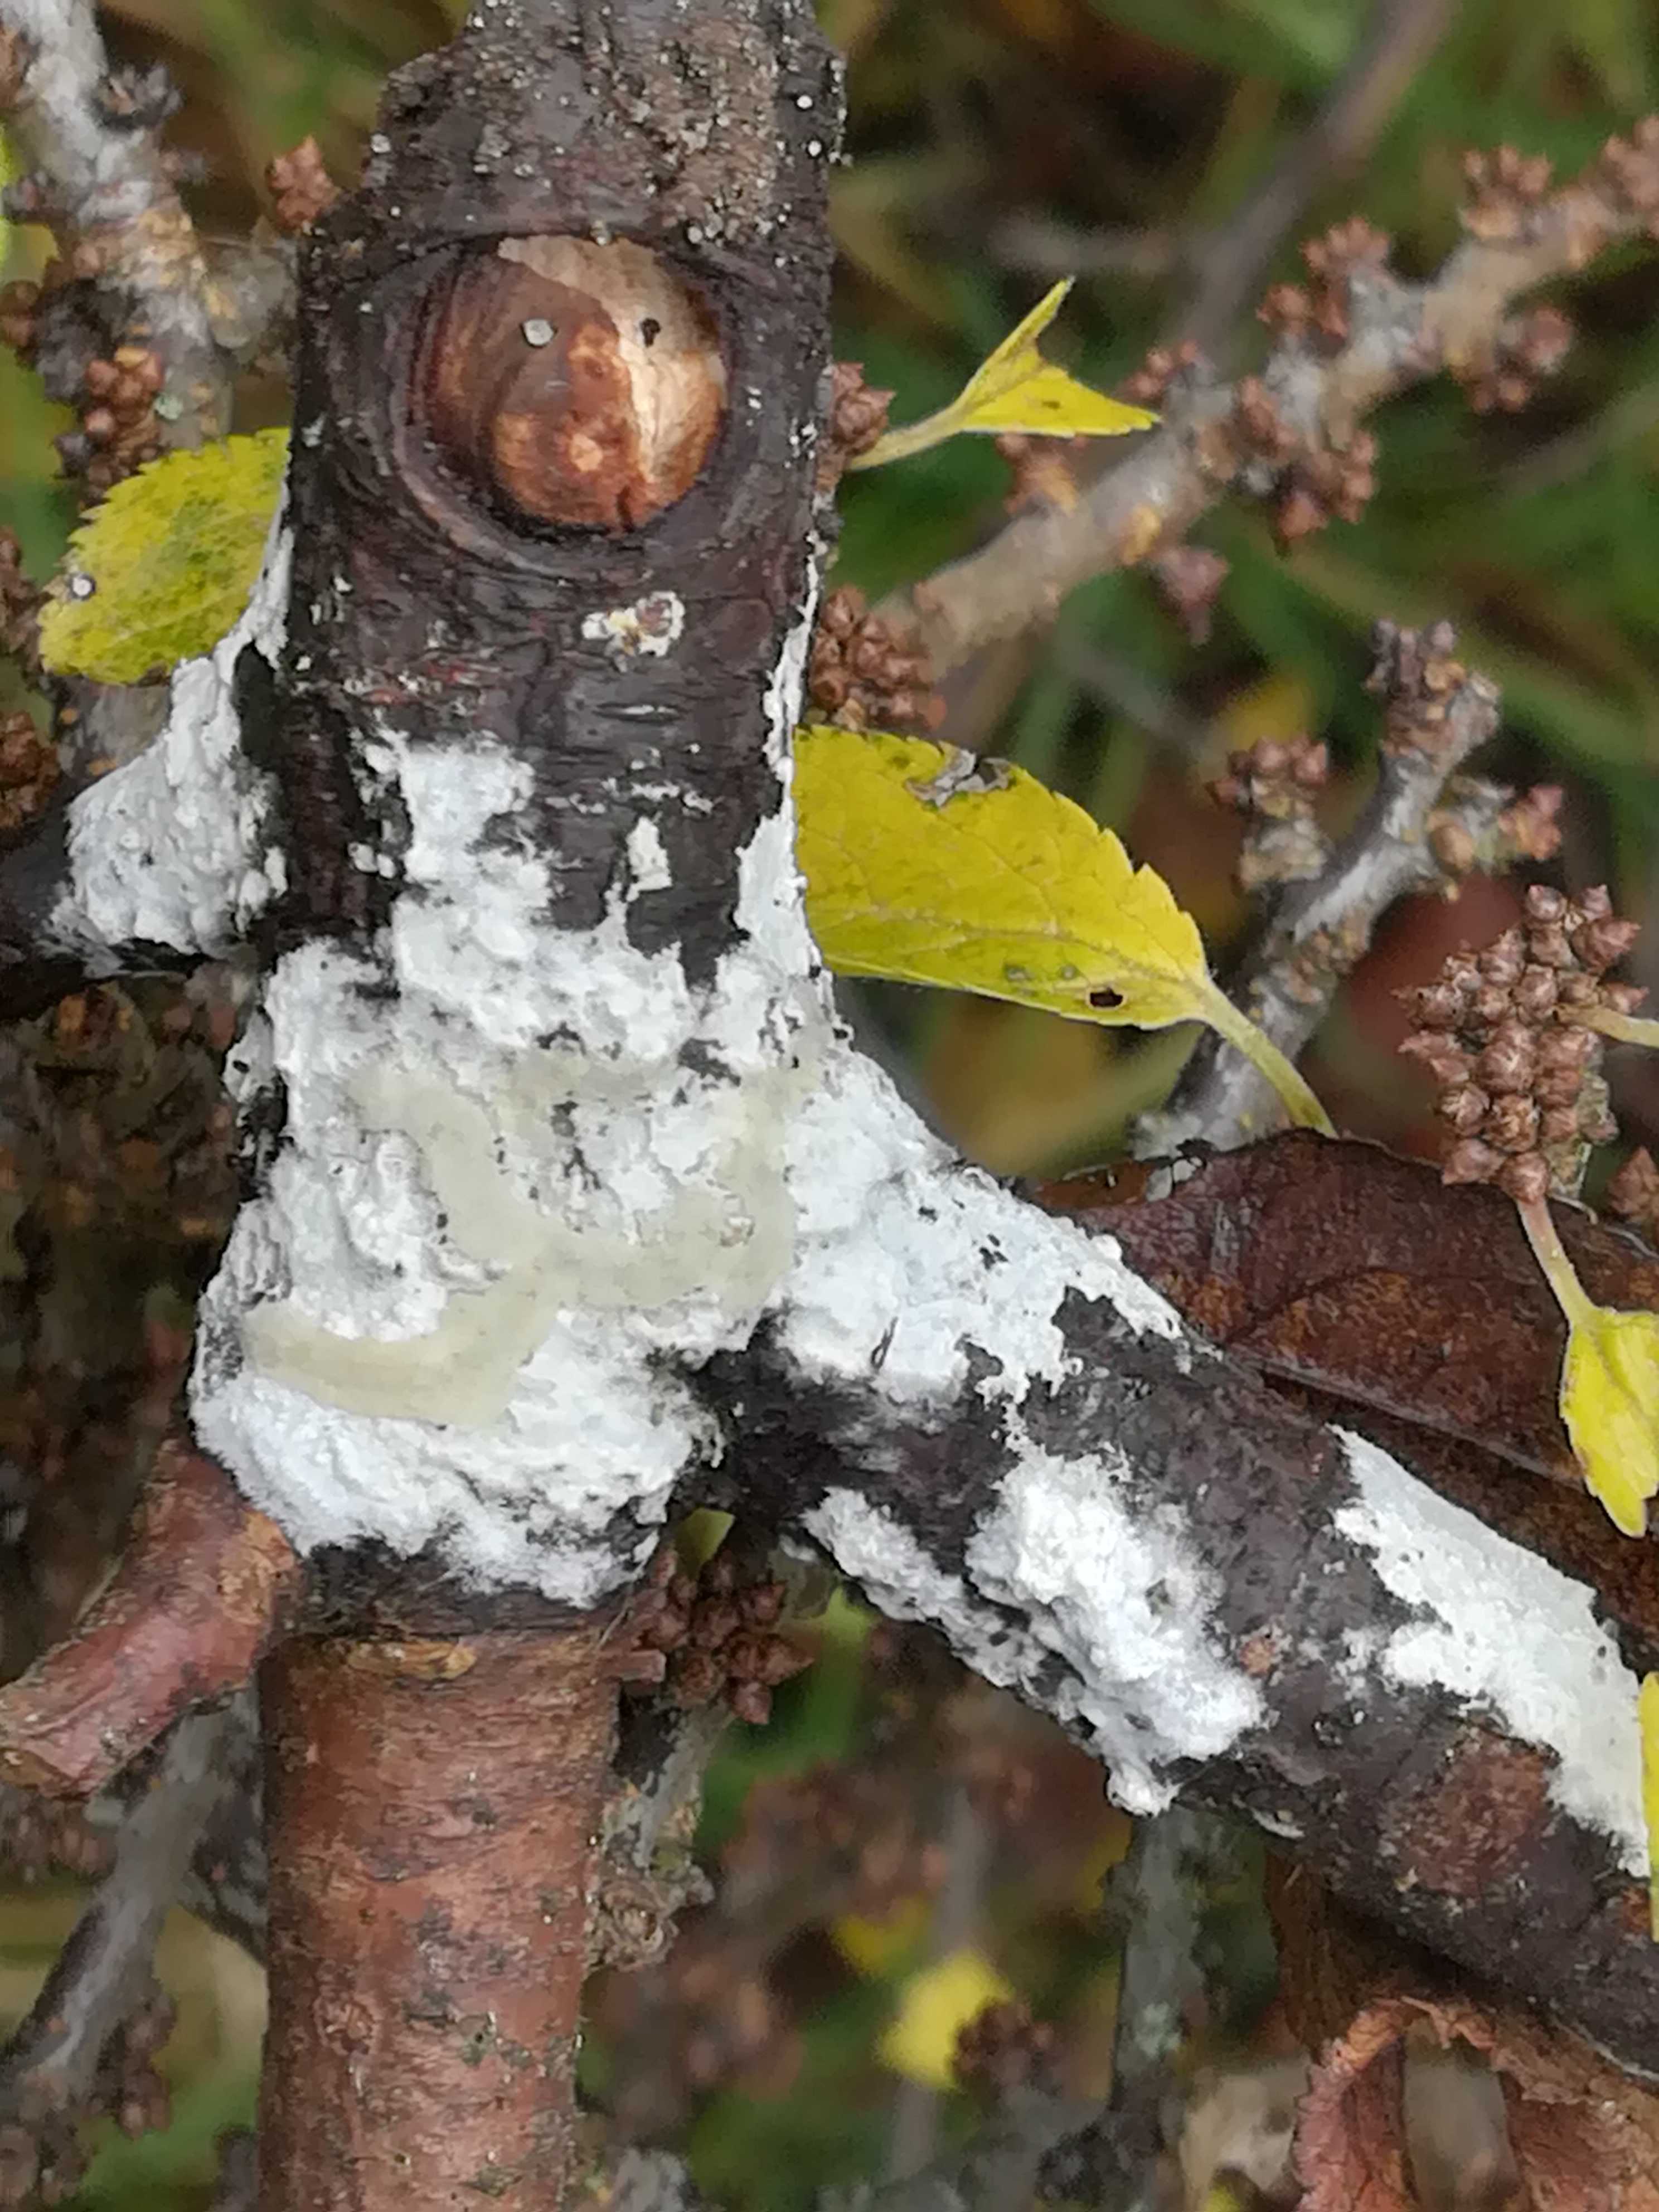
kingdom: Fungi
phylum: Basidiomycota
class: Agaricomycetes
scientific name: Agaricomycetes
